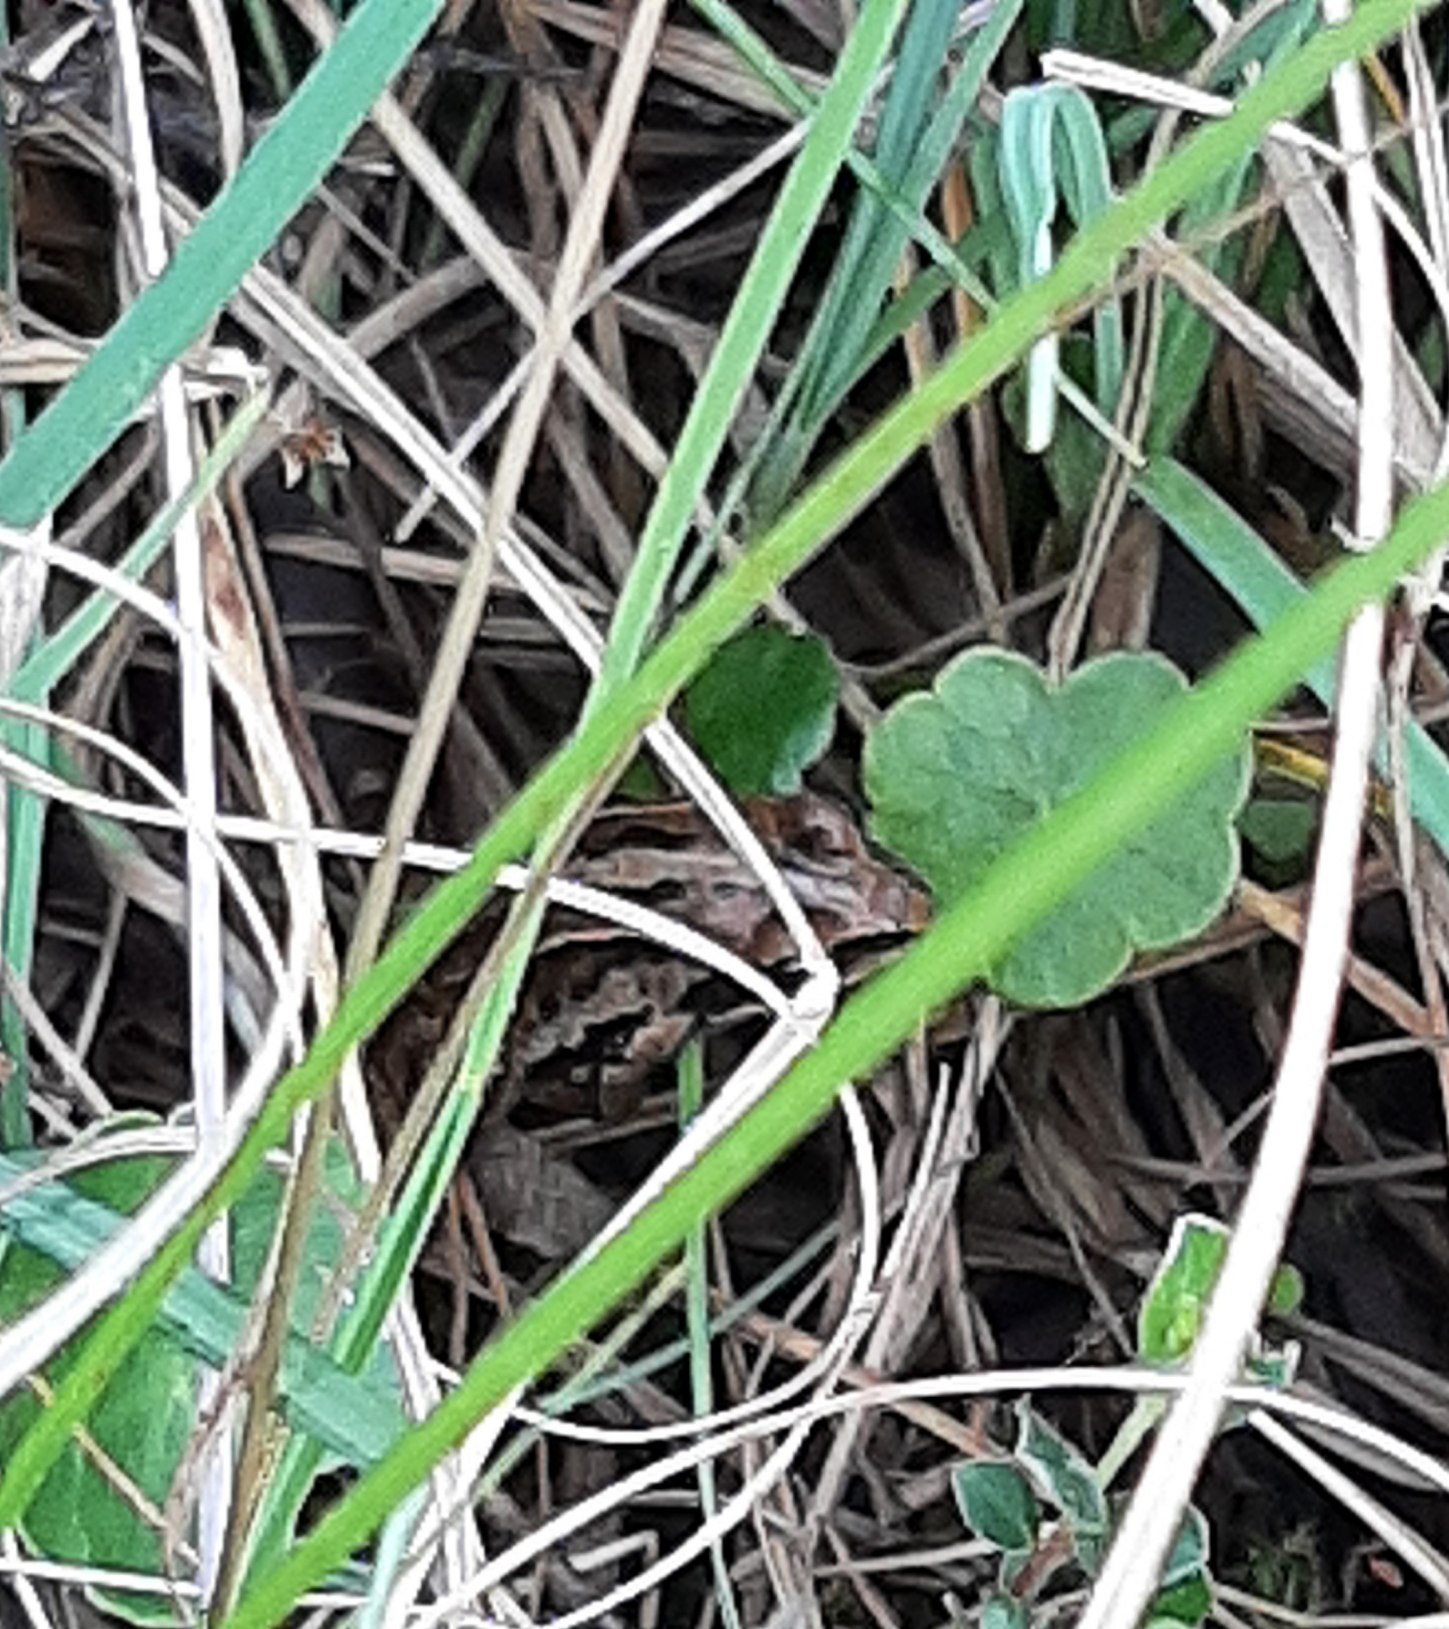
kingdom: Animalia
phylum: Chordata
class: Amphibia
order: Anura
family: Ranidae
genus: Rana
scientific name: Rana arvalis
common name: Spidssnudet frø
